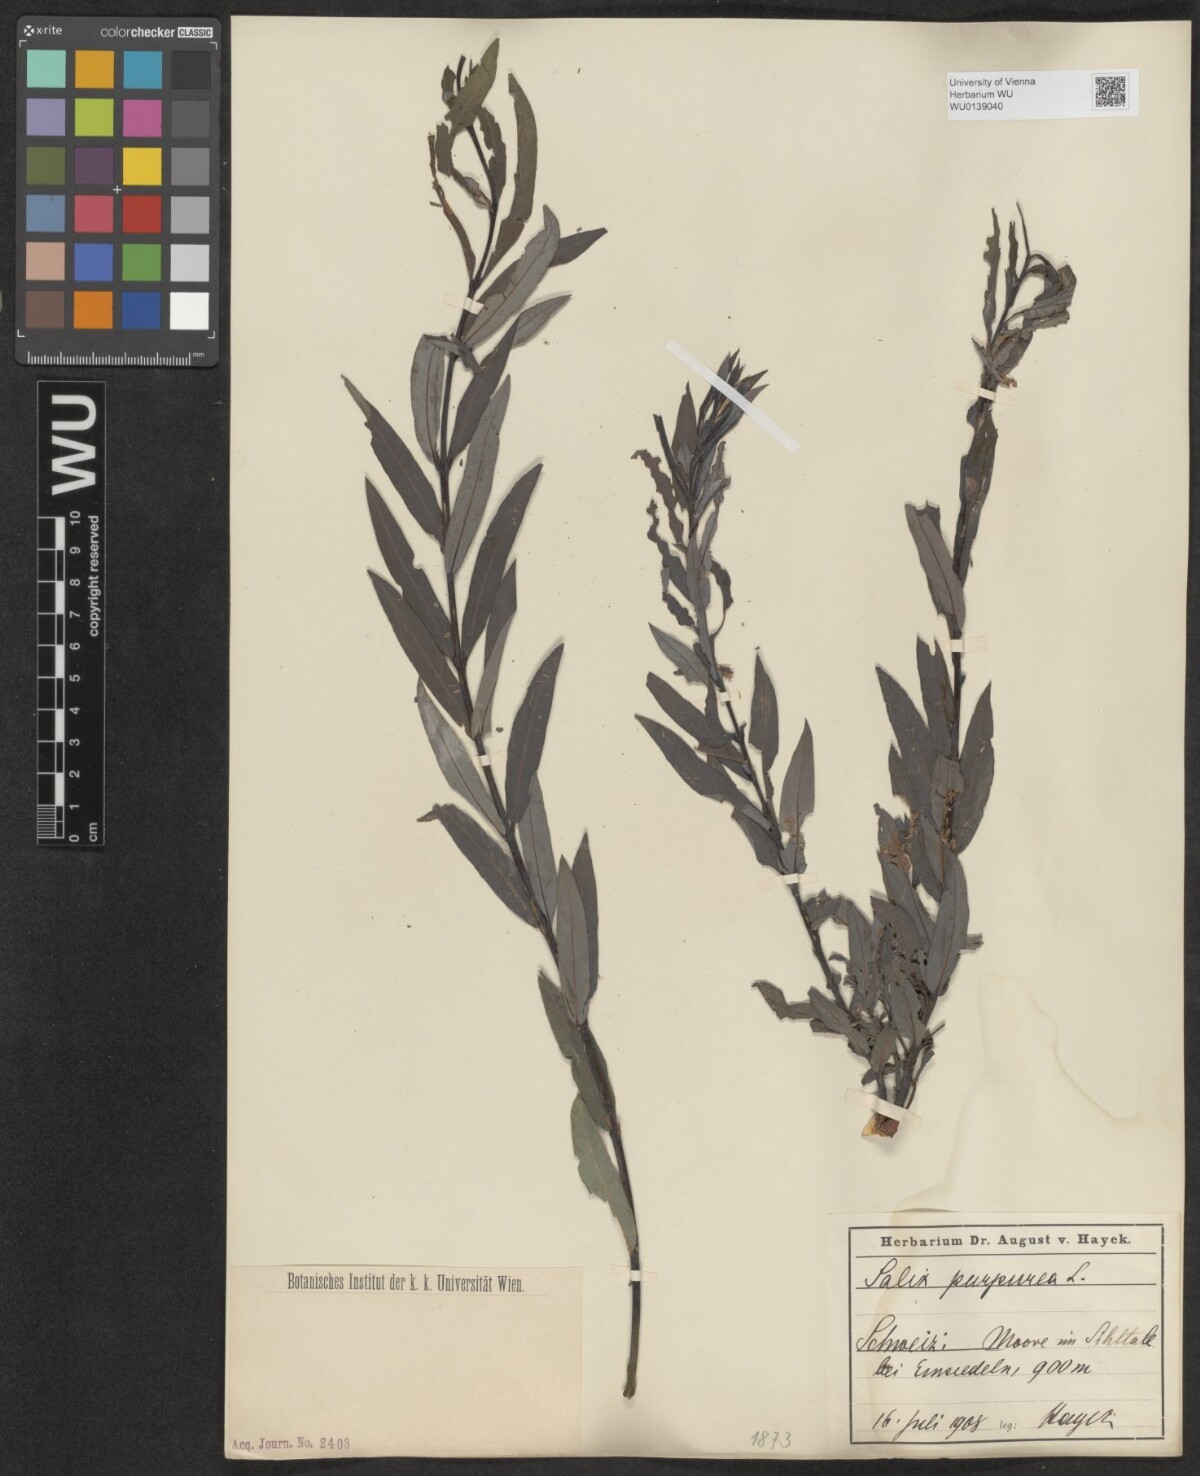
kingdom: Plantae
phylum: Tracheophyta
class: Magnoliopsida
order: Malpighiales
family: Salicaceae
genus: Salix
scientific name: Salix purpurea
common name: Purple willow
